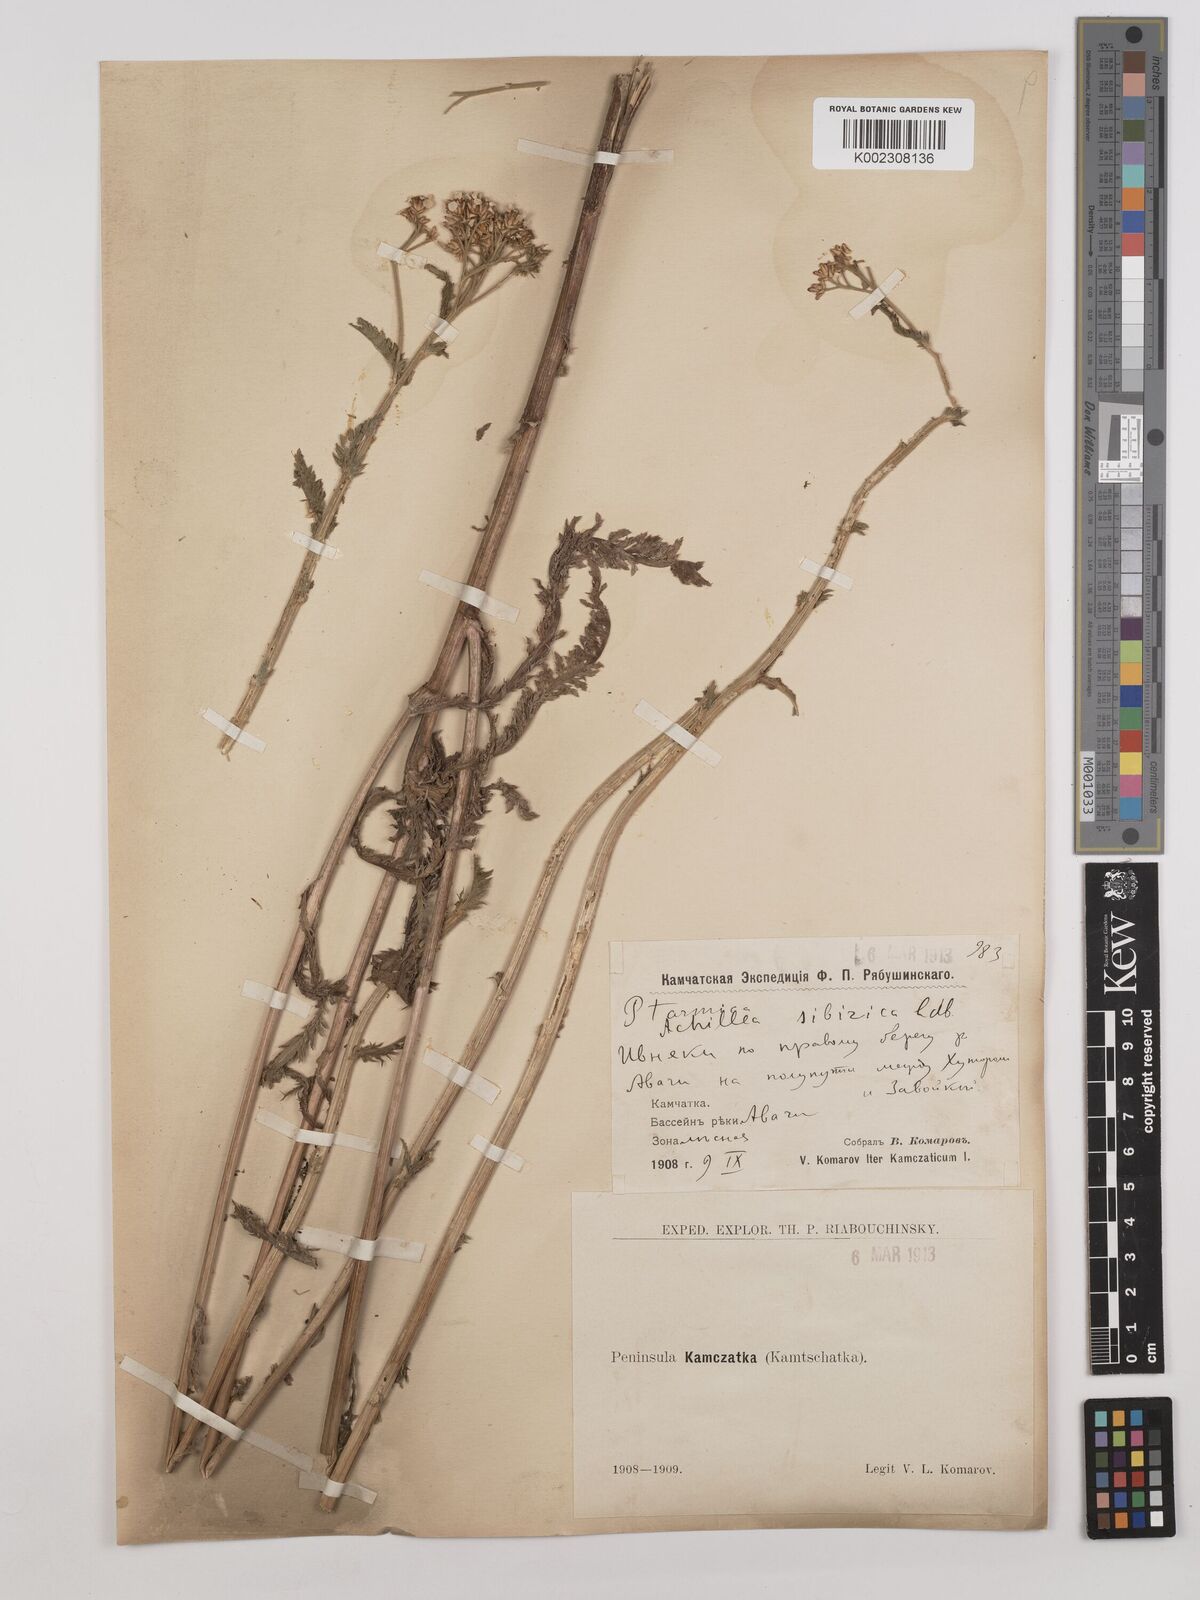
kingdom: Plantae
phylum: Tracheophyta
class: Magnoliopsida
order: Asterales
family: Asteraceae
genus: Achillea
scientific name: Achillea alpina
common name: Siberian yarrow
